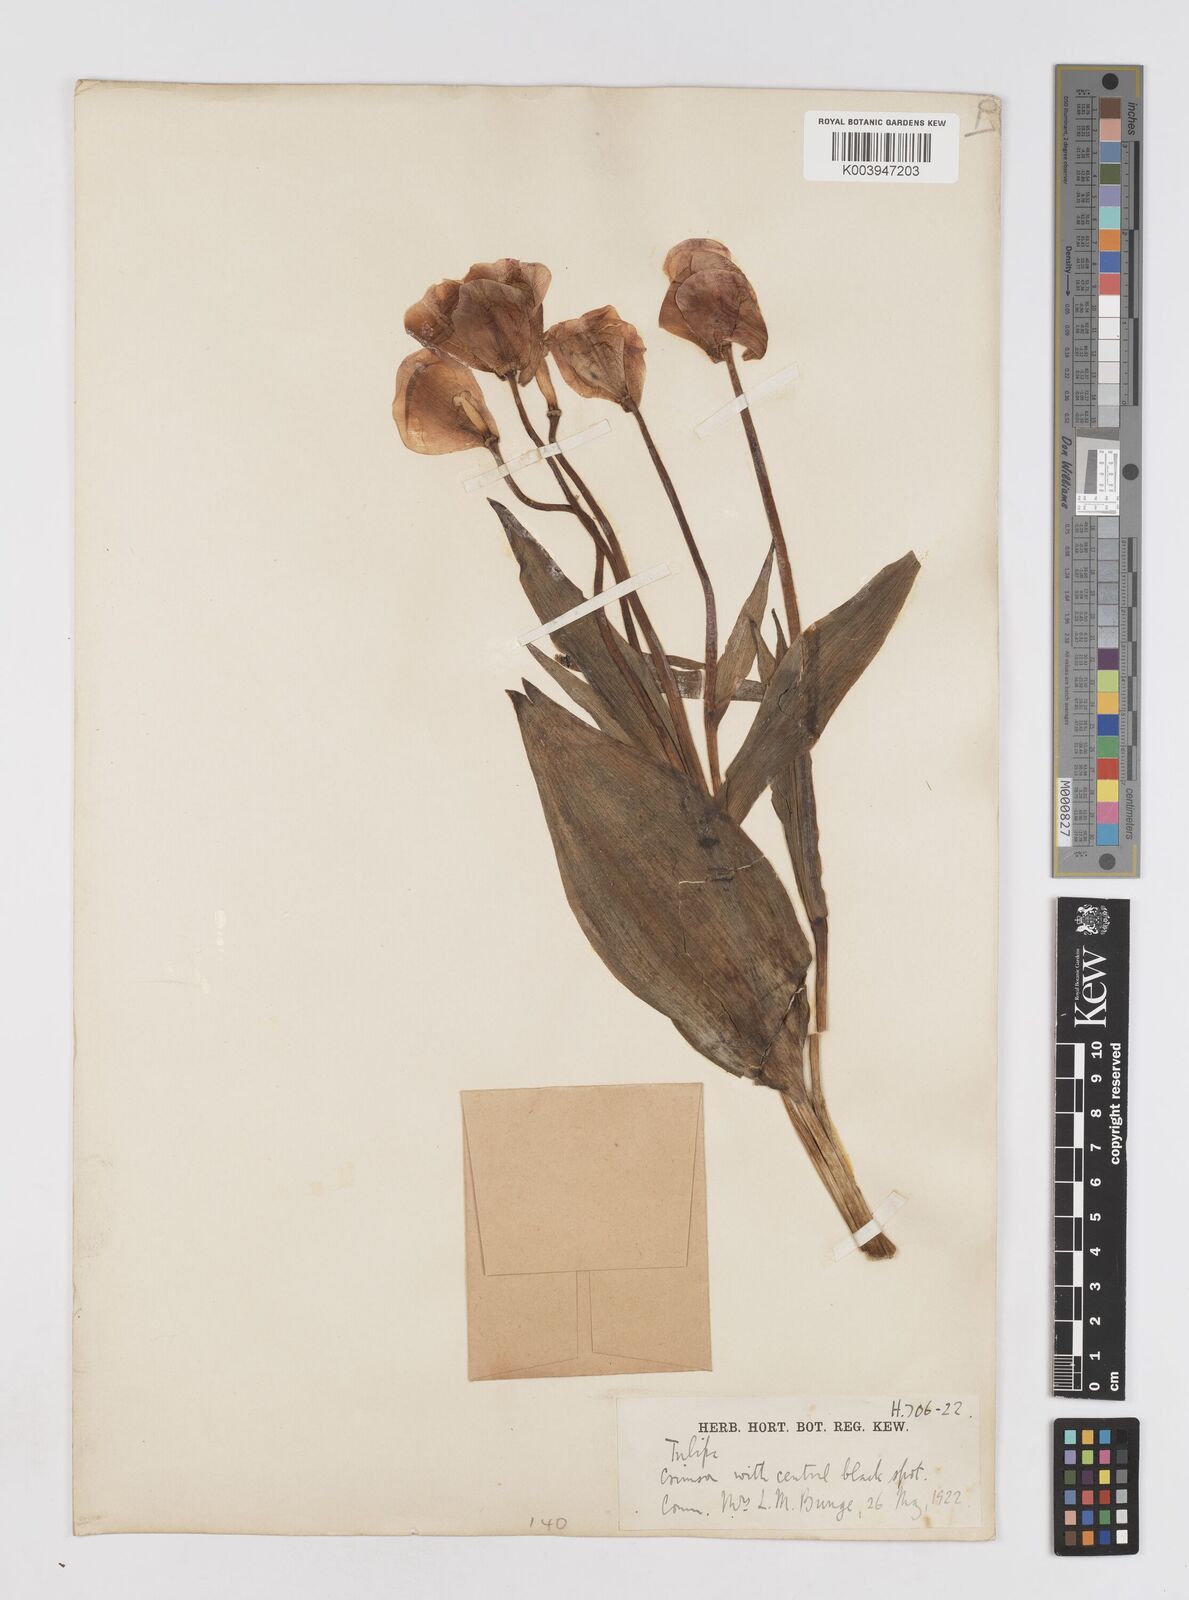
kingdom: Plantae
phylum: Tracheophyta
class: Liliopsida
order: Liliales
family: Liliaceae
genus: Tulipa
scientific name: Tulipa gesneriana
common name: Garden tulip
